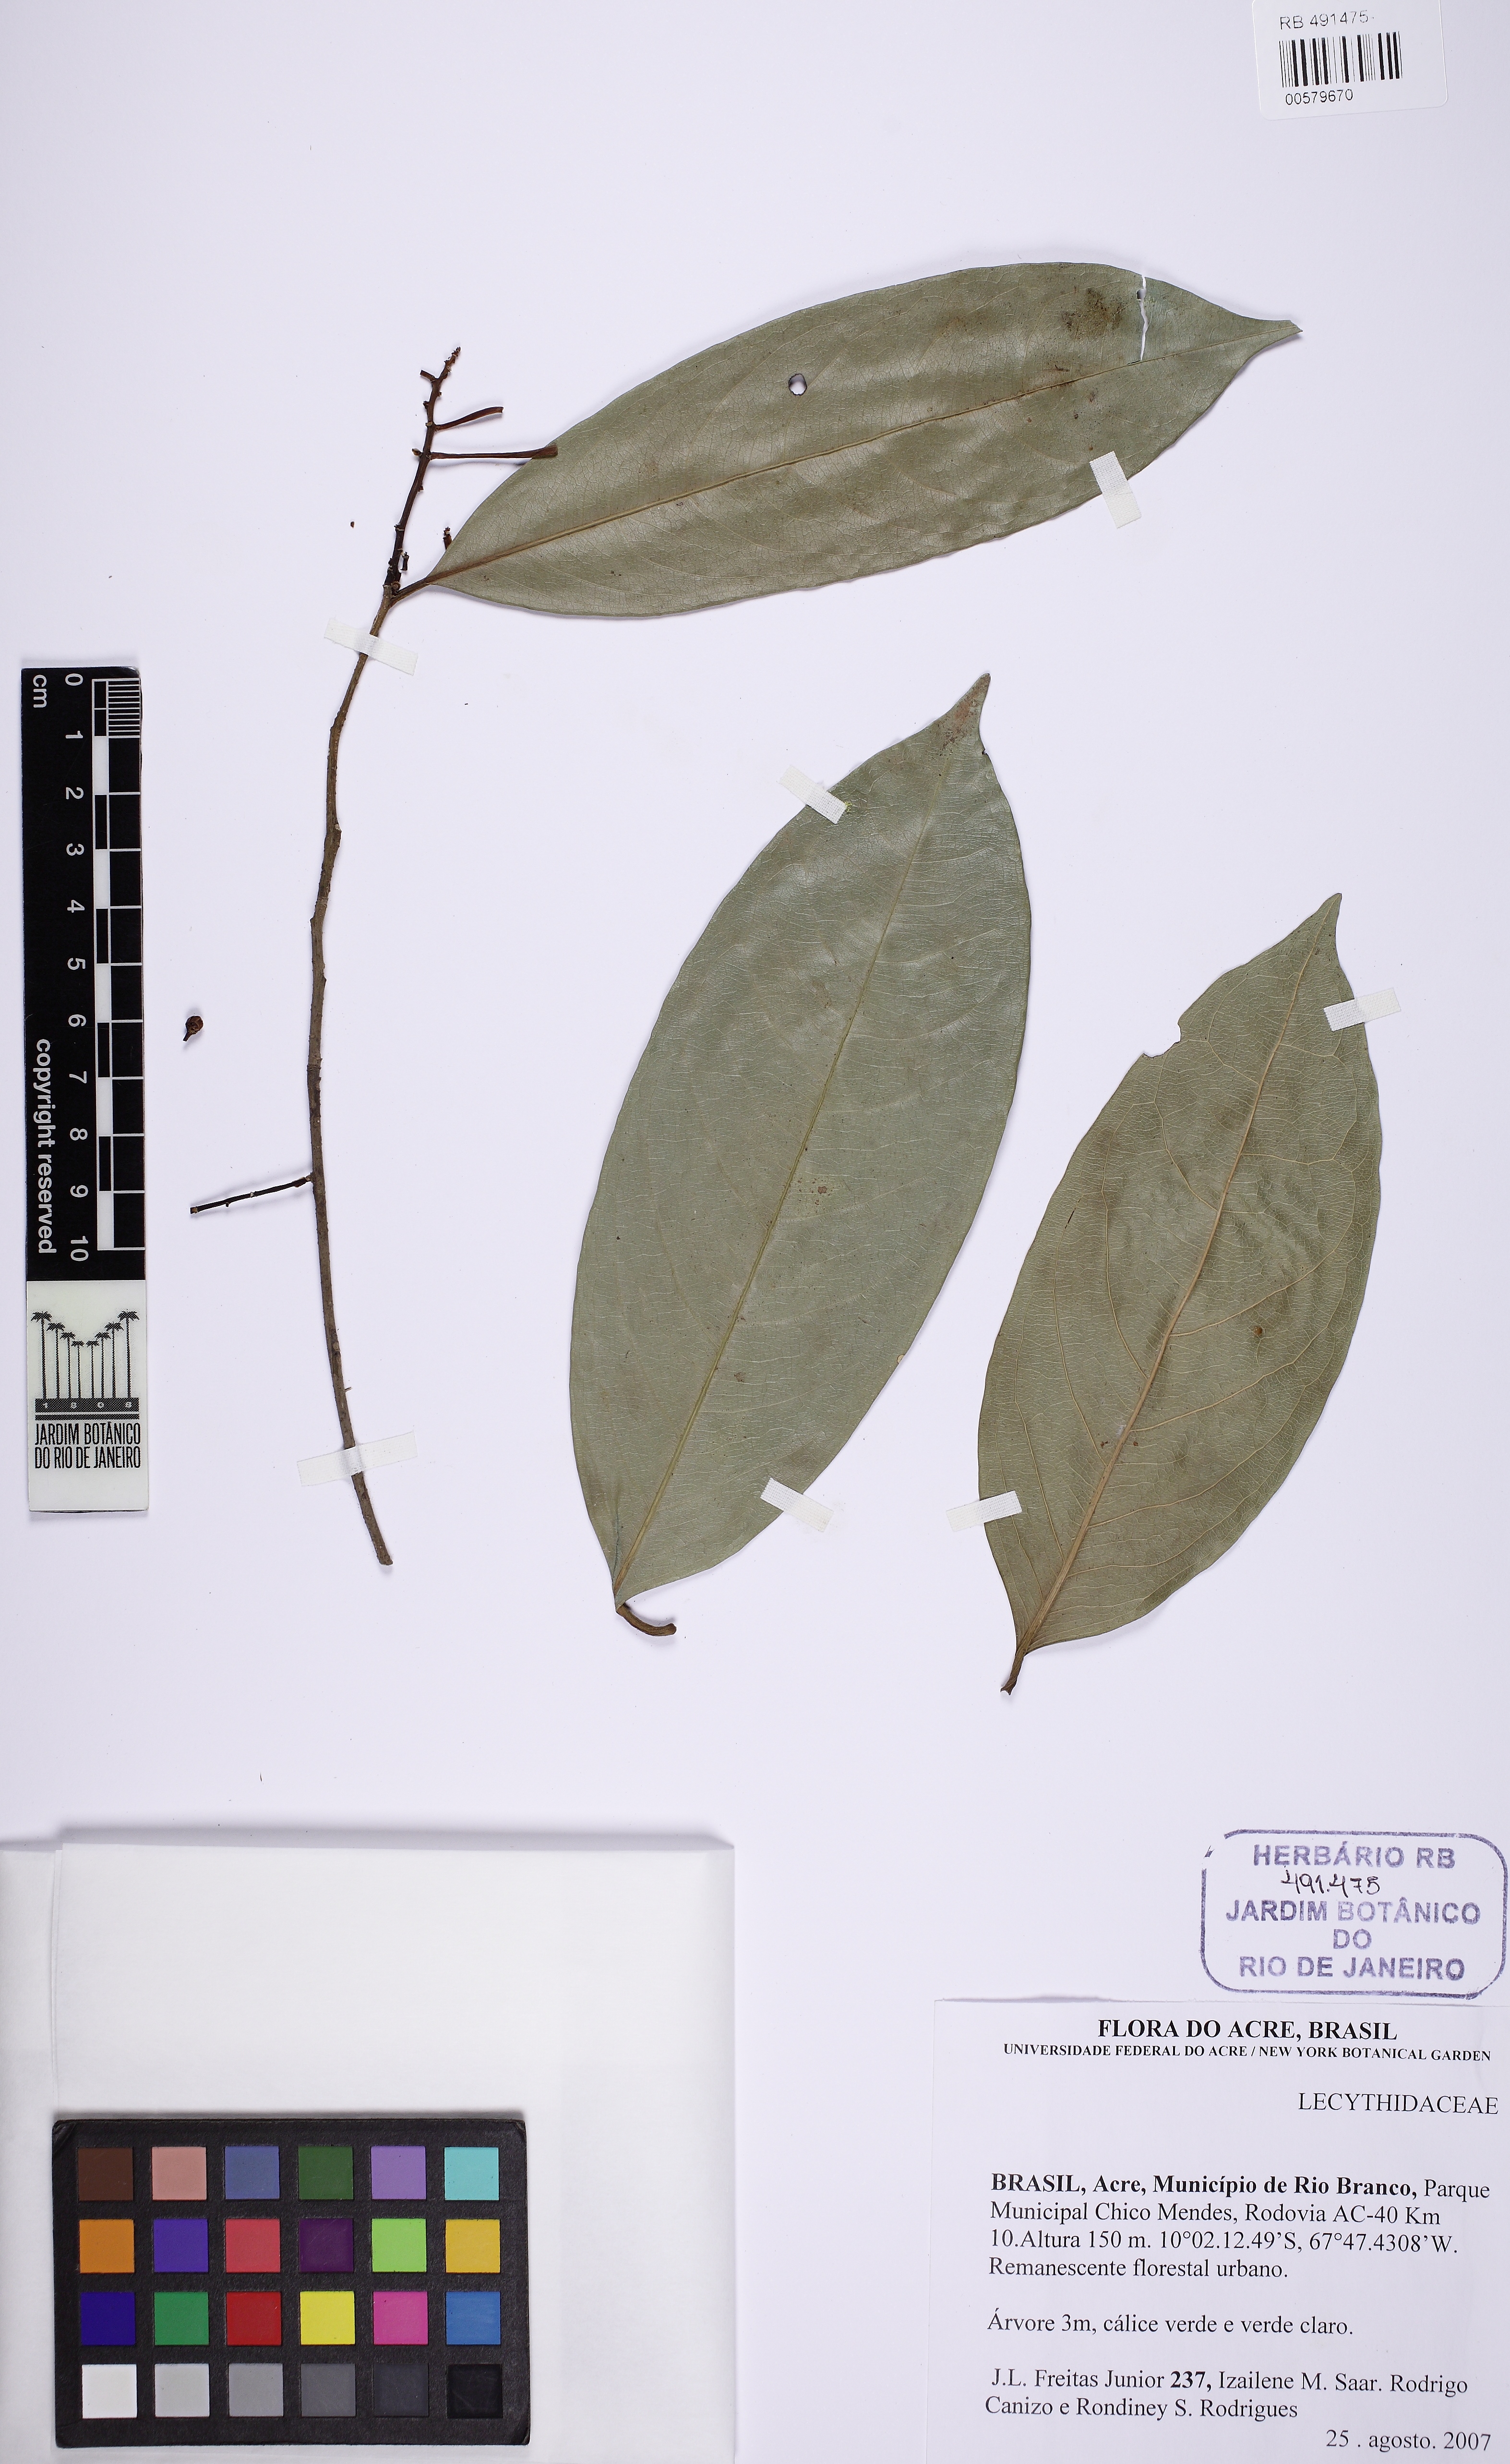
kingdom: Plantae
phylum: Tracheophyta
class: Magnoliopsida
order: Ericales
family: Lecythidaceae
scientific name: Lecythidaceae
